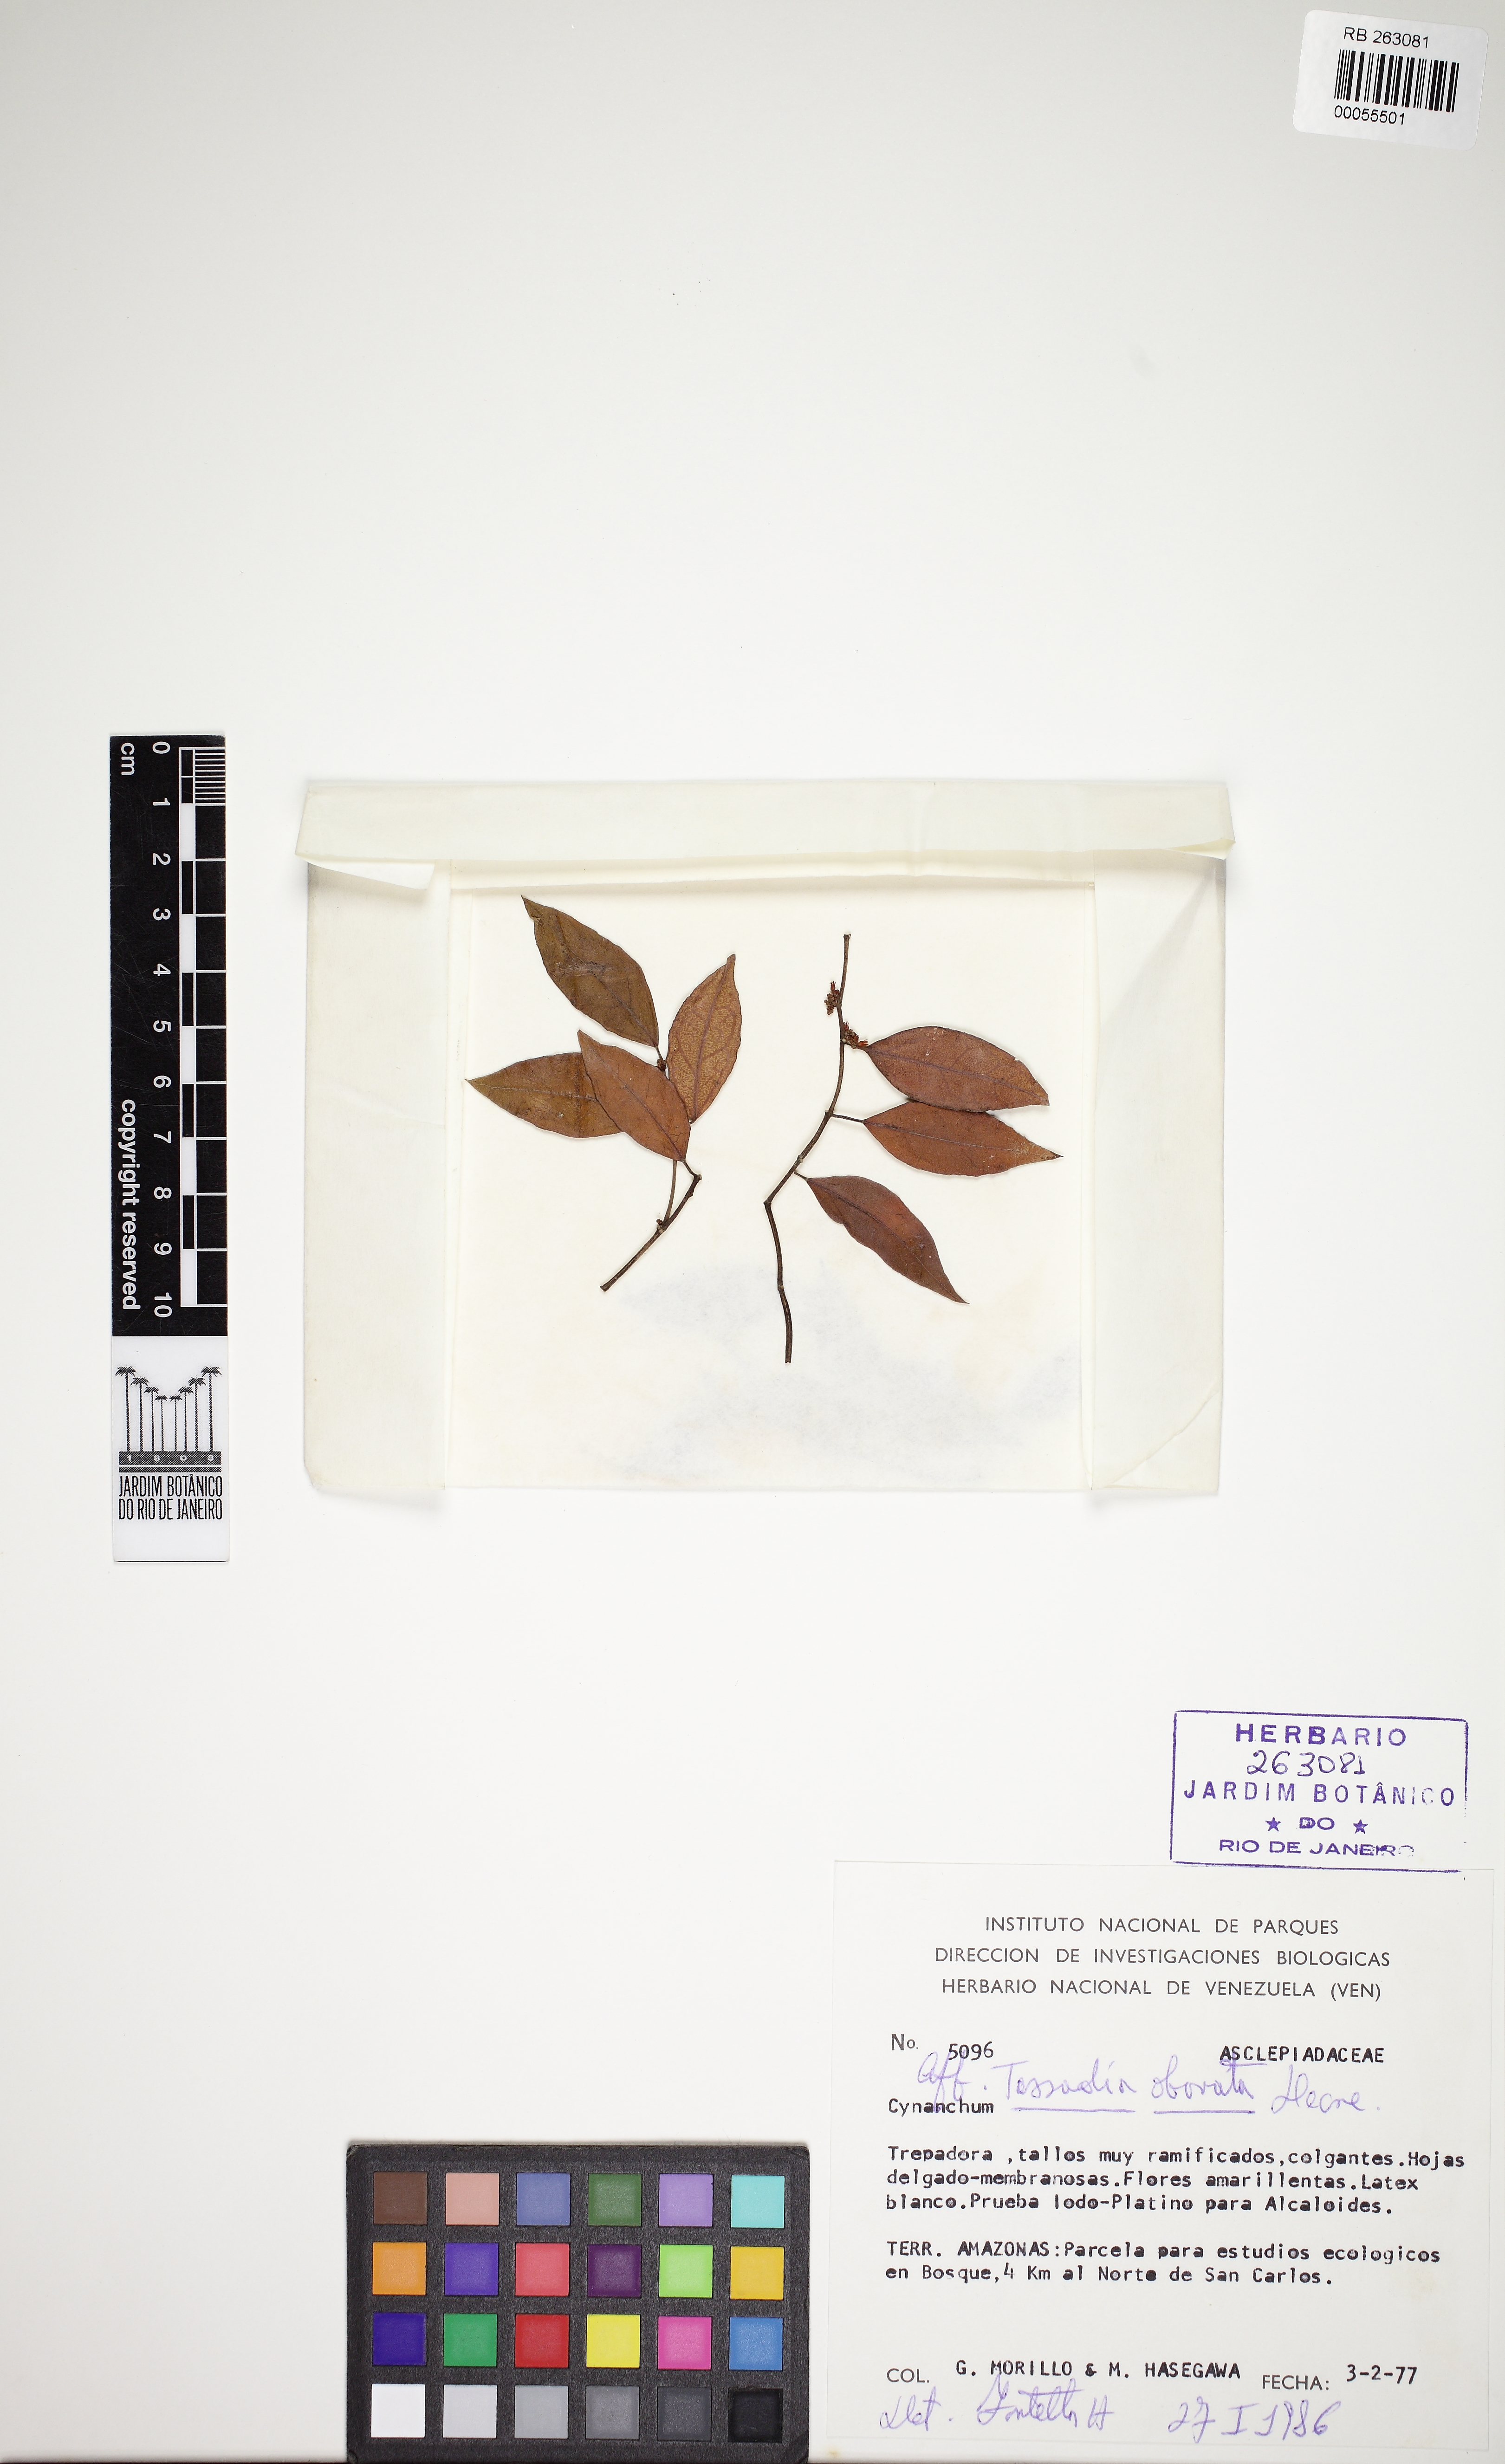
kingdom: Plantae
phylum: Tracheophyta
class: Magnoliopsida
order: Gentianales
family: Apocynaceae
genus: Tassadia
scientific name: Tassadia obovata
